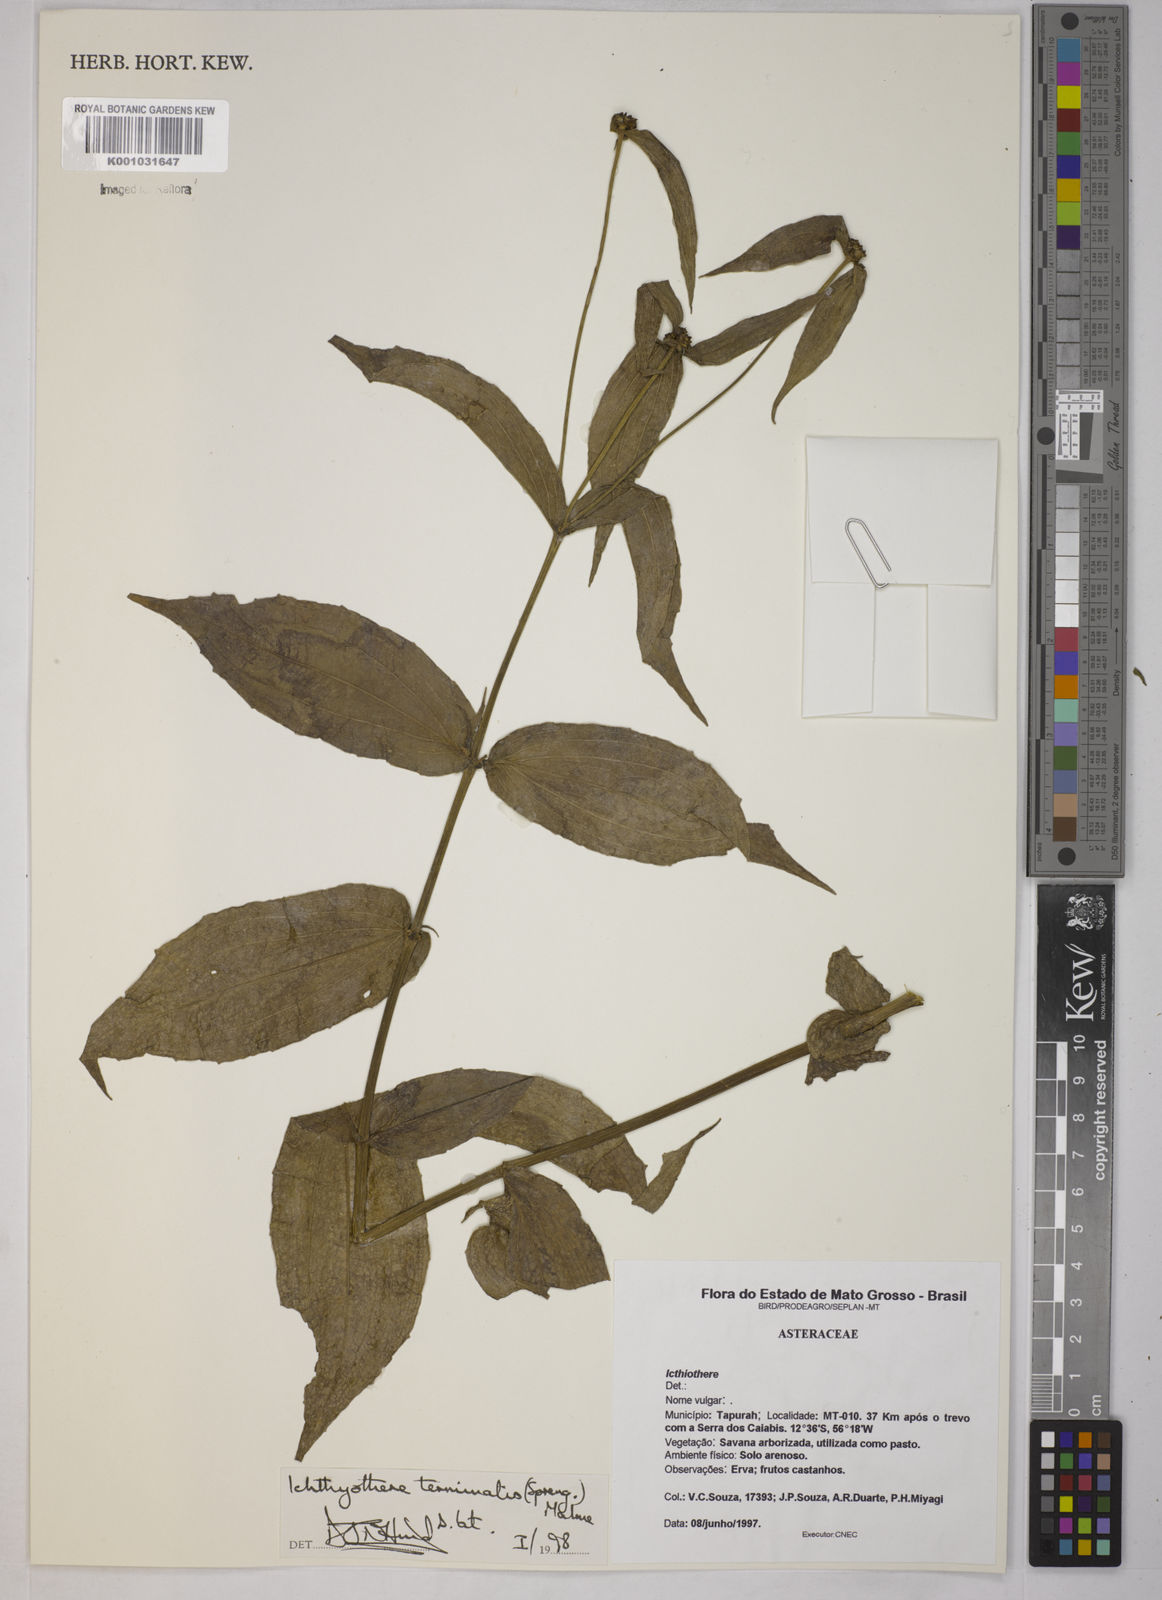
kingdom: Plantae
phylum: Tracheophyta
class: Magnoliopsida
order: Asterales
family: Asteraceae
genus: Ichthyothere
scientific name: Ichthyothere terminalis
